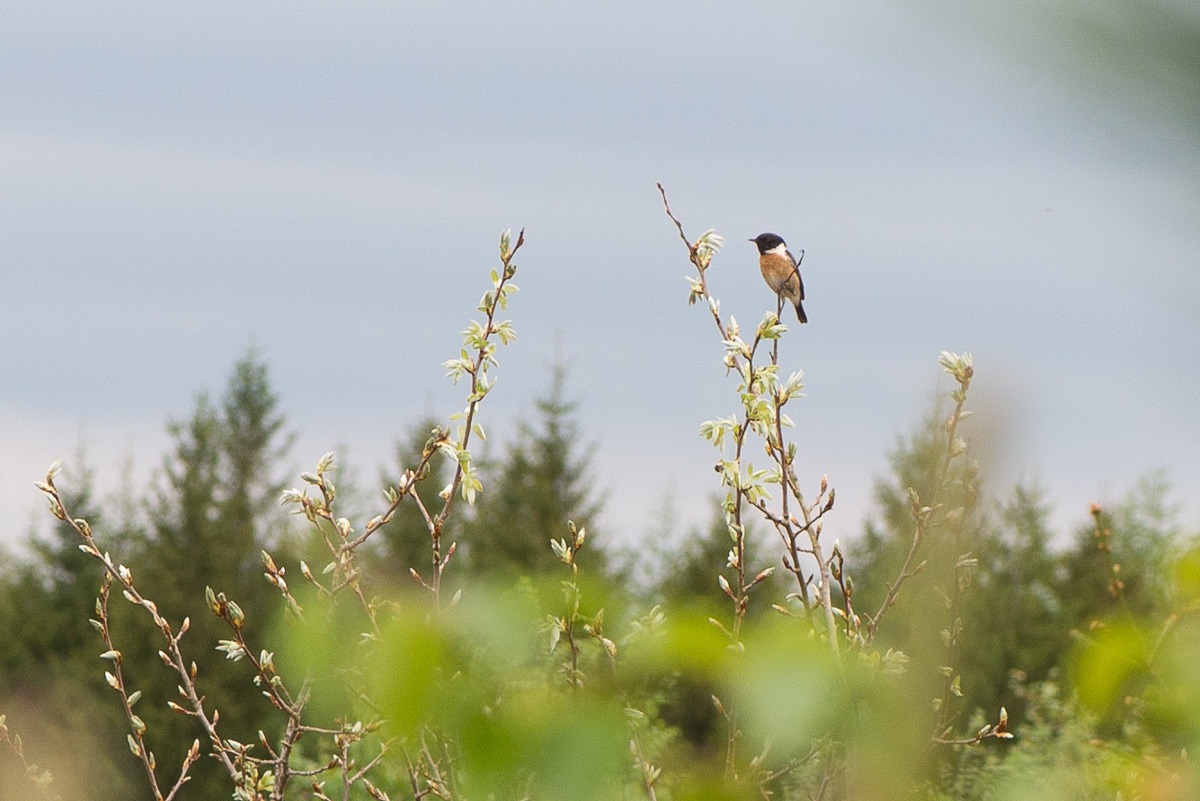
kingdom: Animalia
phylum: Chordata
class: Aves
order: Passeriformes
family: Muscicapidae
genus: Saxicola
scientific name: Saxicola rubicola
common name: Sortstrubet bynkefugl
